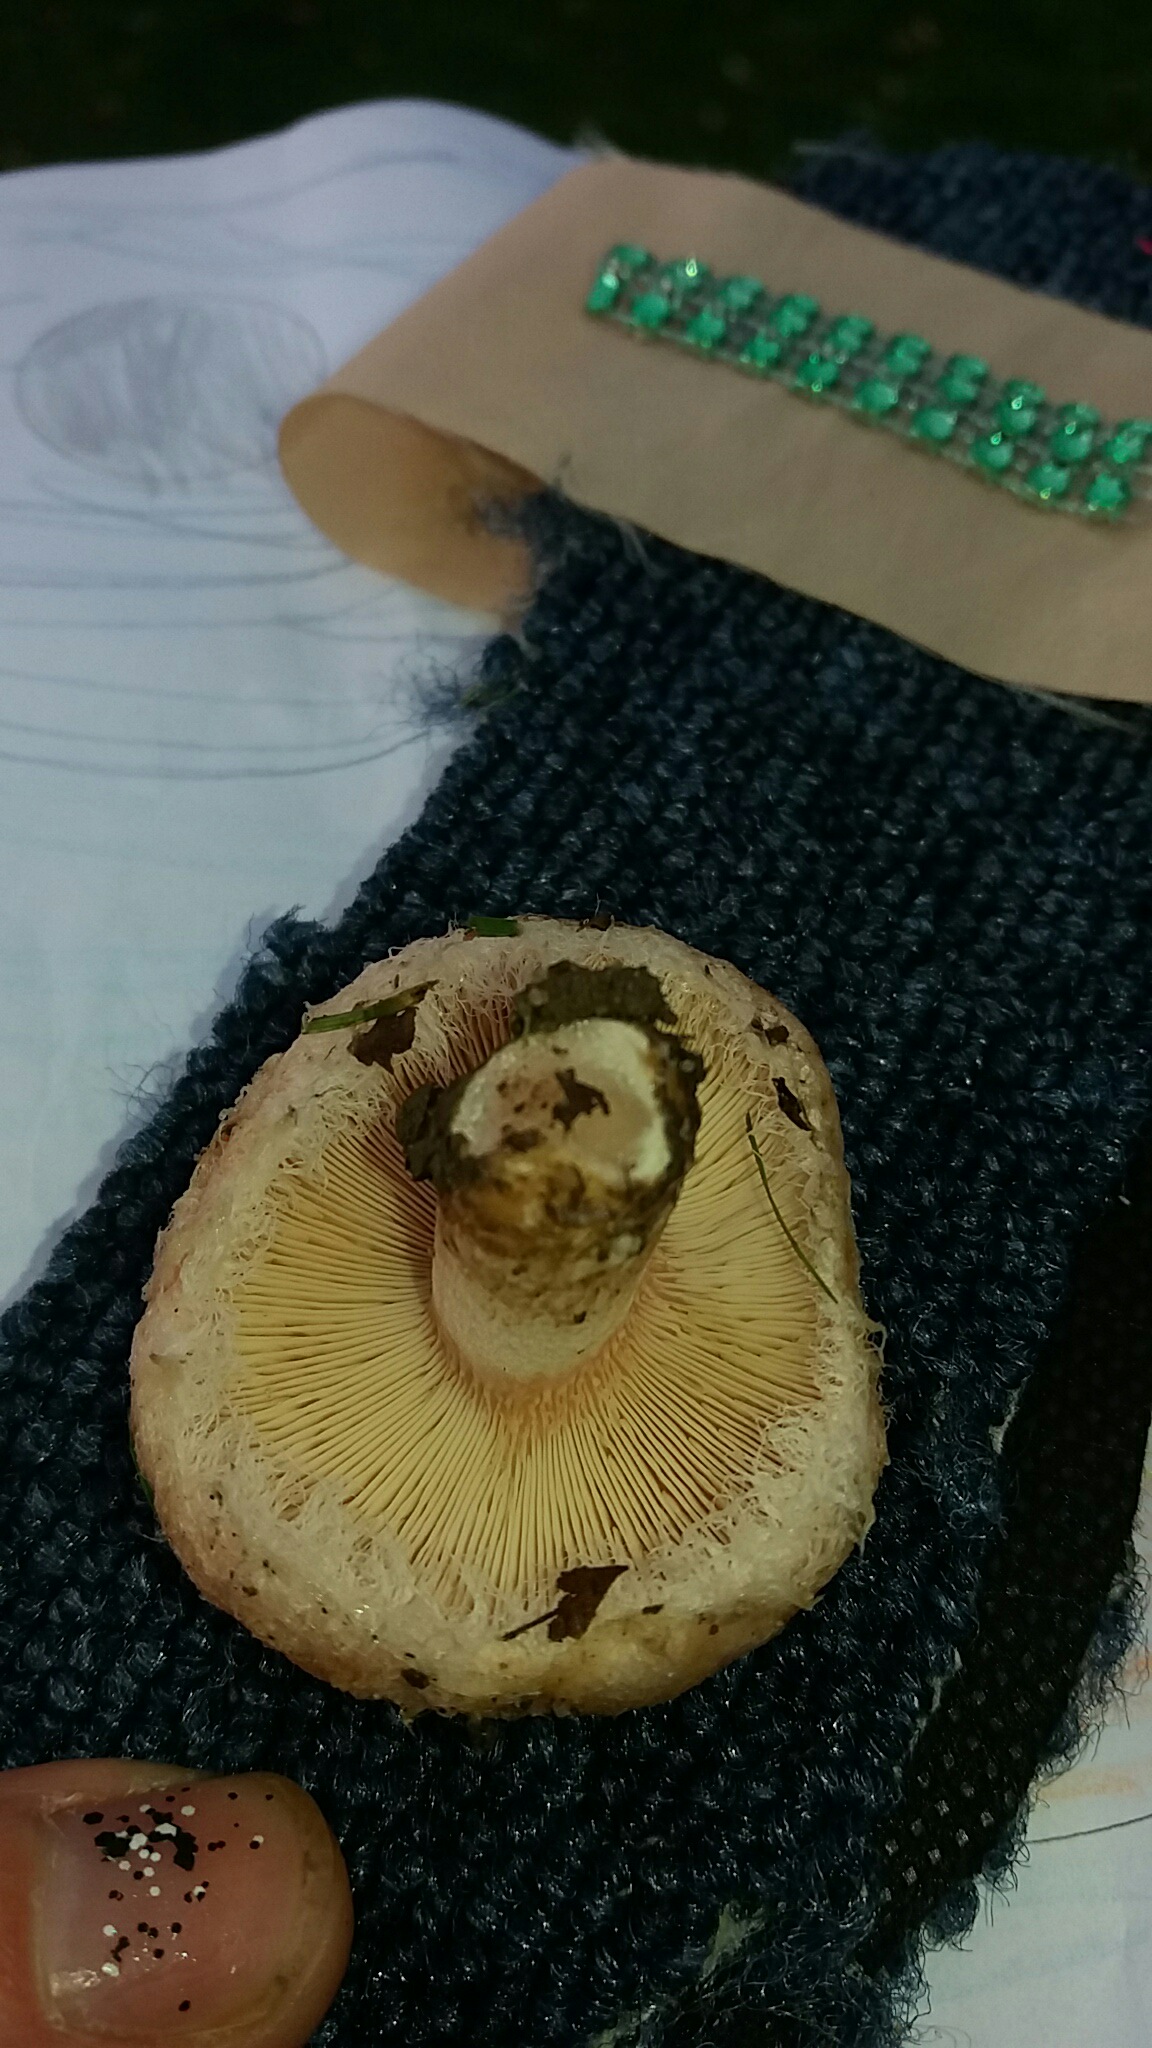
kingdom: Fungi
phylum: Basidiomycota
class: Agaricomycetes
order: Russulales
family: Russulaceae
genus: Lactarius
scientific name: Lactarius pubescens
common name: dunet mælkehat
